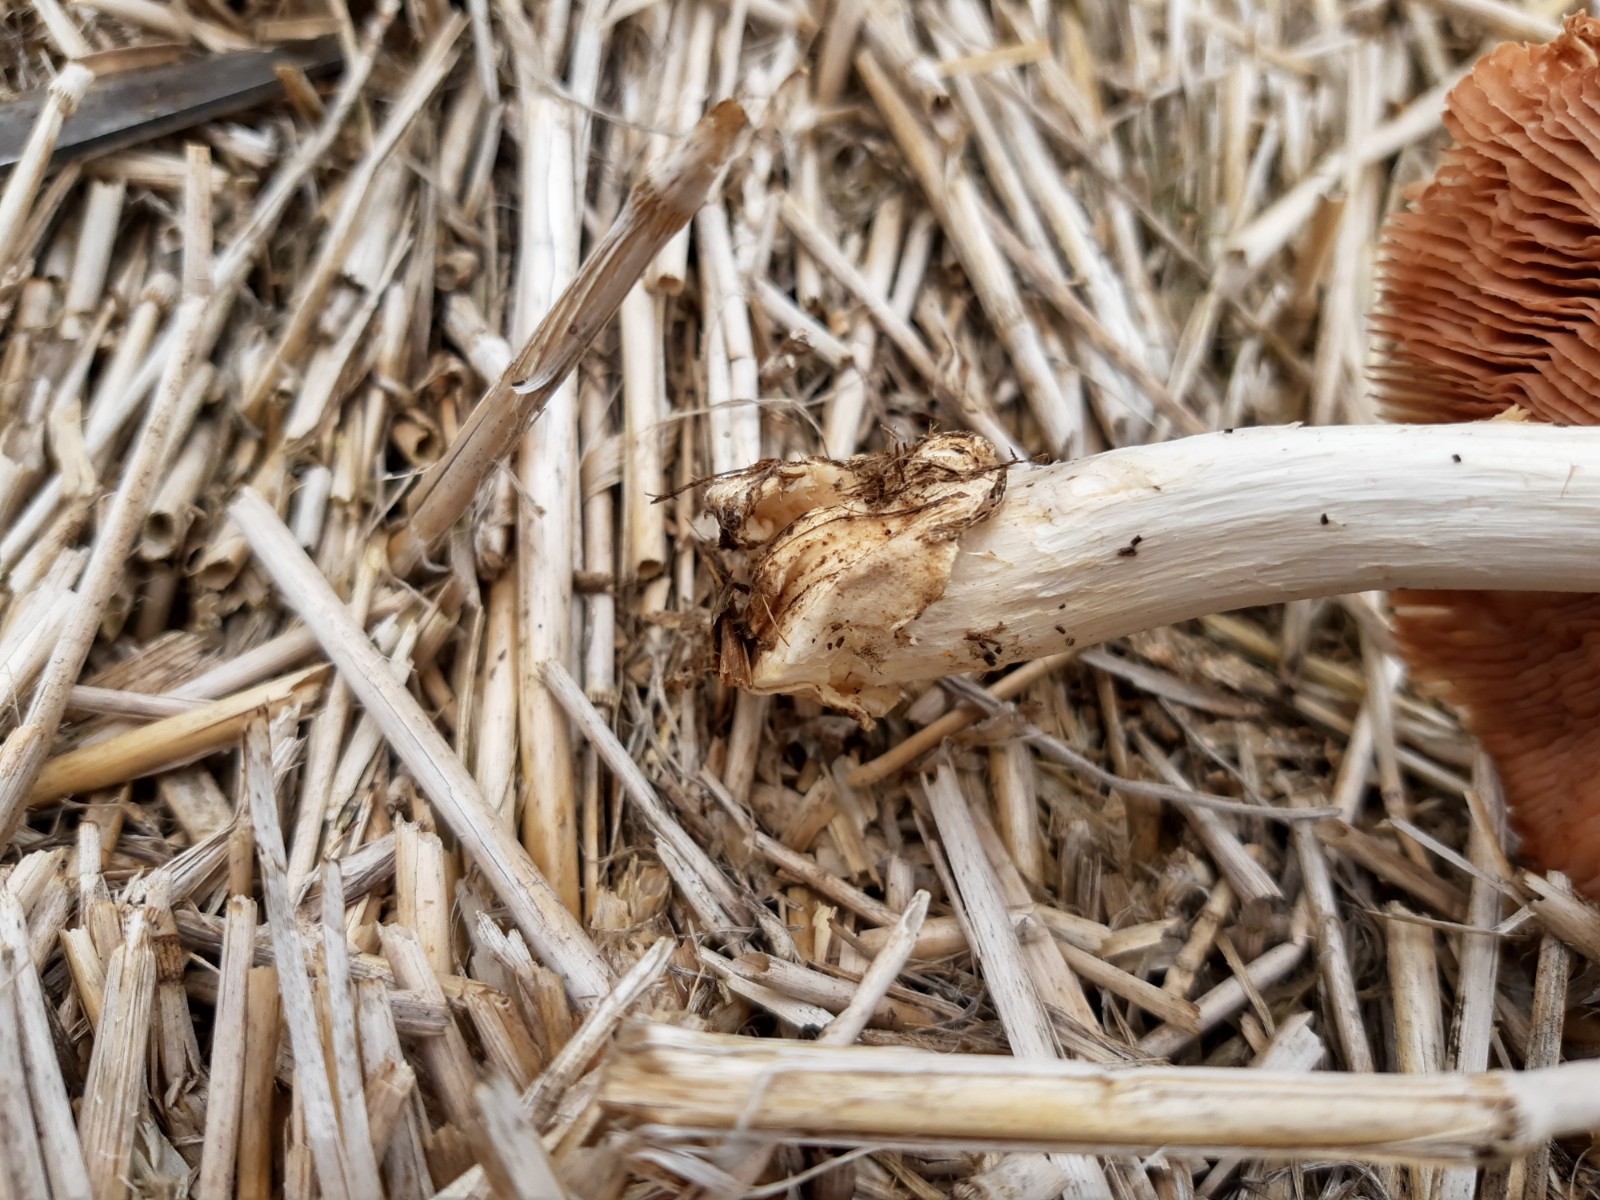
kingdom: Fungi
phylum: Basidiomycota
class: Agaricomycetes
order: Agaricales
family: Pluteaceae
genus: Volvopluteus
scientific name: Volvopluteus gloiocephalus
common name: høj posesvamp
